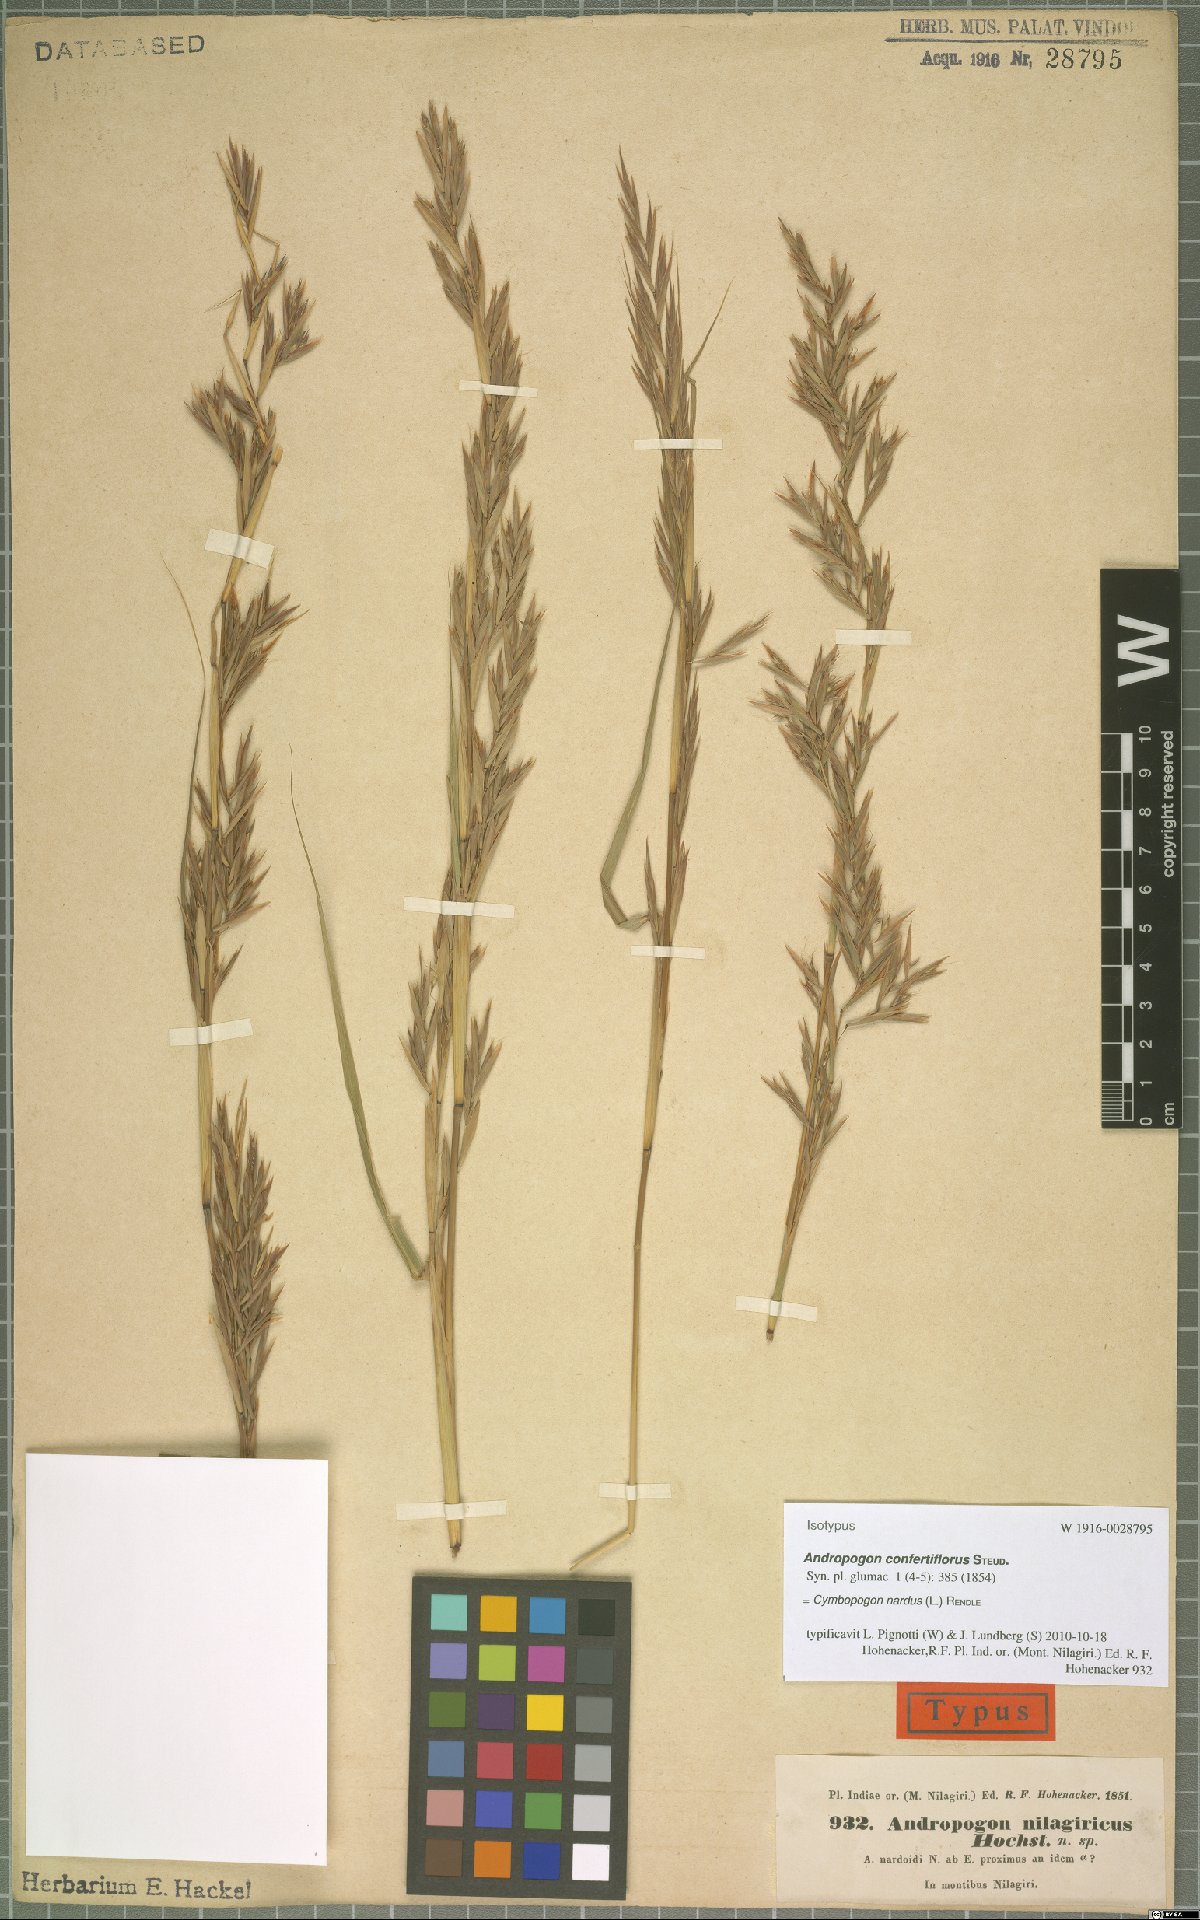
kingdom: Plantae
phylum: Tracheophyta
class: Liliopsida
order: Poales
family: Poaceae
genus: Cymbopogon
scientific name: Cymbopogon nardus
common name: Giant turpentine grass
